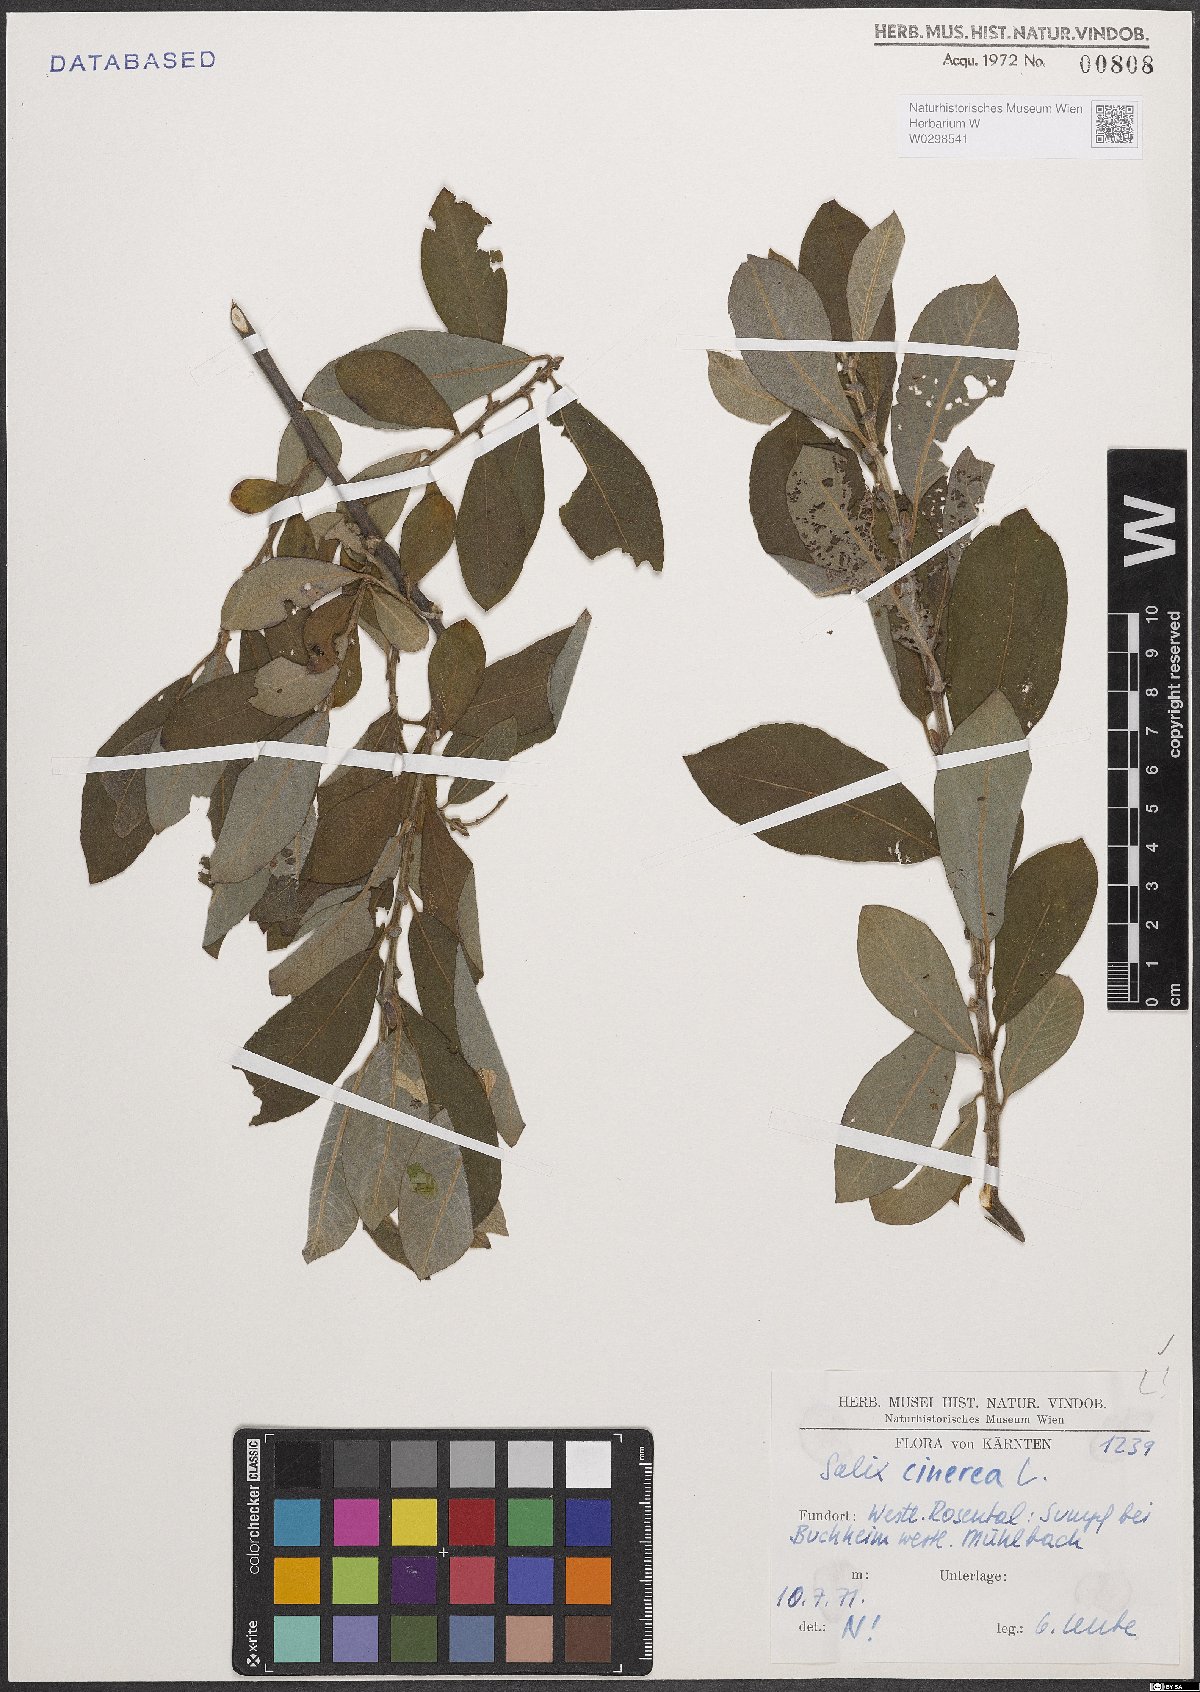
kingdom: Plantae
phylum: Tracheophyta
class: Magnoliopsida
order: Malpighiales
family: Salicaceae
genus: Salix
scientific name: Salix cinerea
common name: Common sallow
